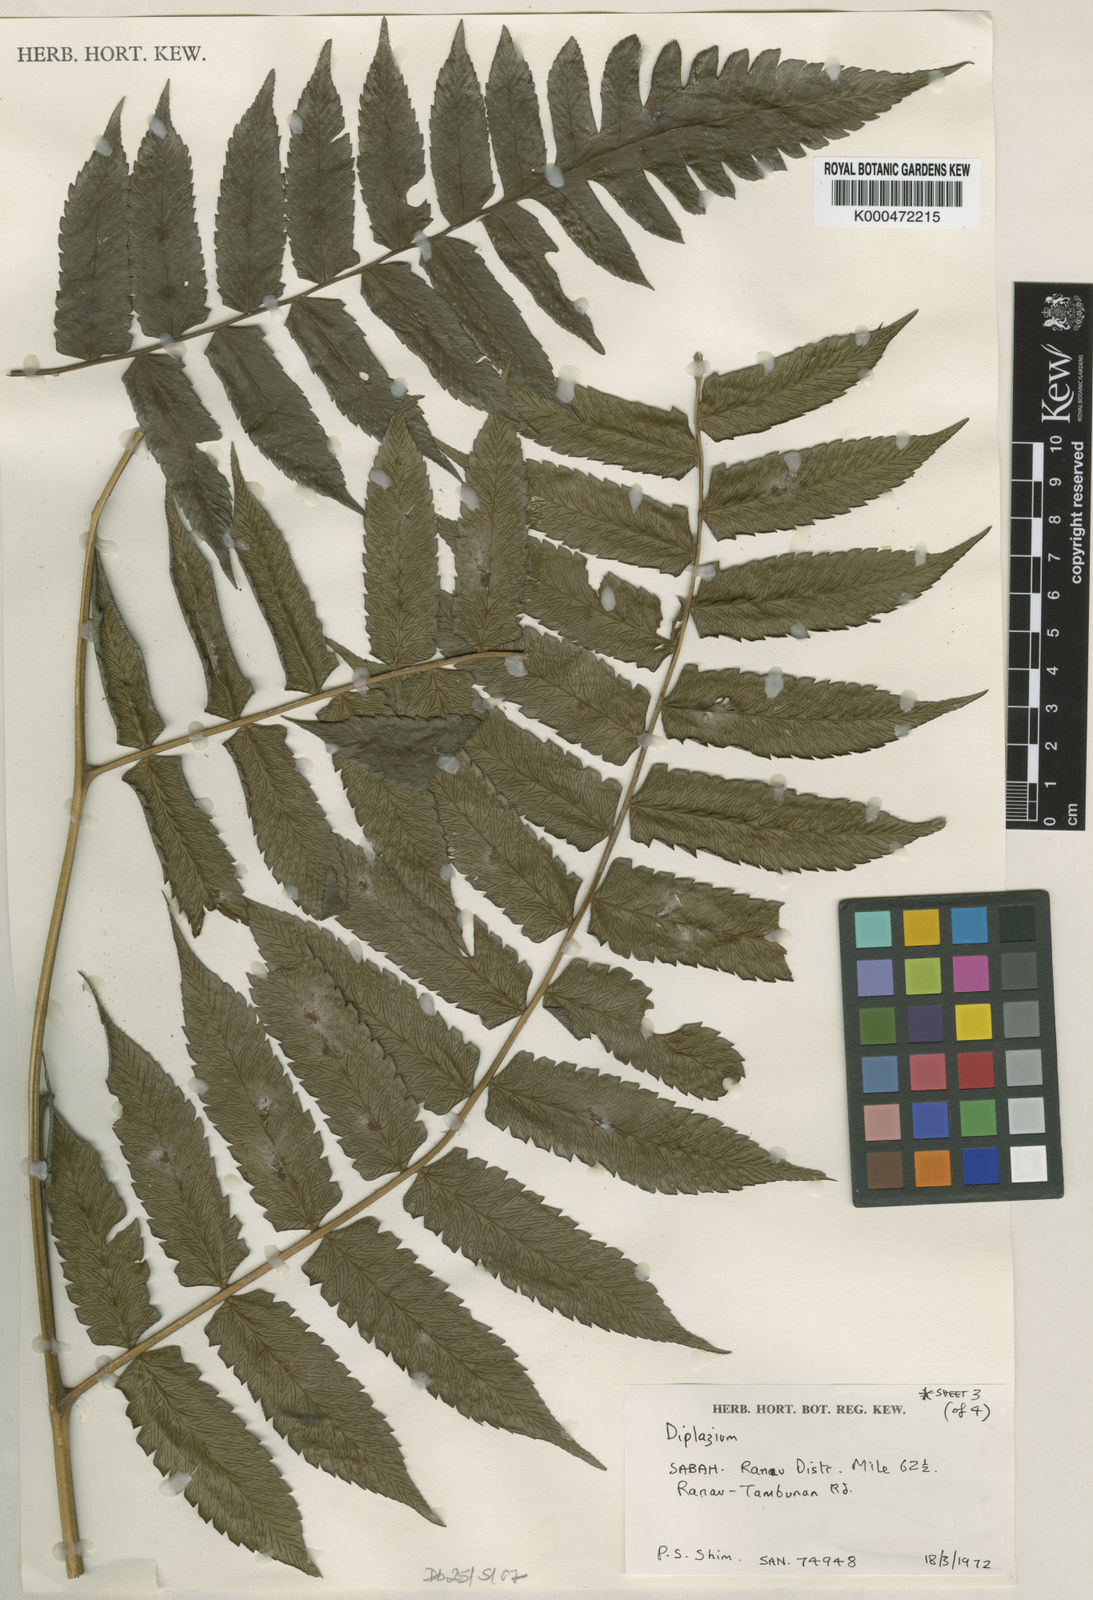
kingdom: Plantae
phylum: Tracheophyta
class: Polypodiopsida
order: Polypodiales
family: Athyriaceae
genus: Diplazium
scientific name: Diplazium dilatatum
